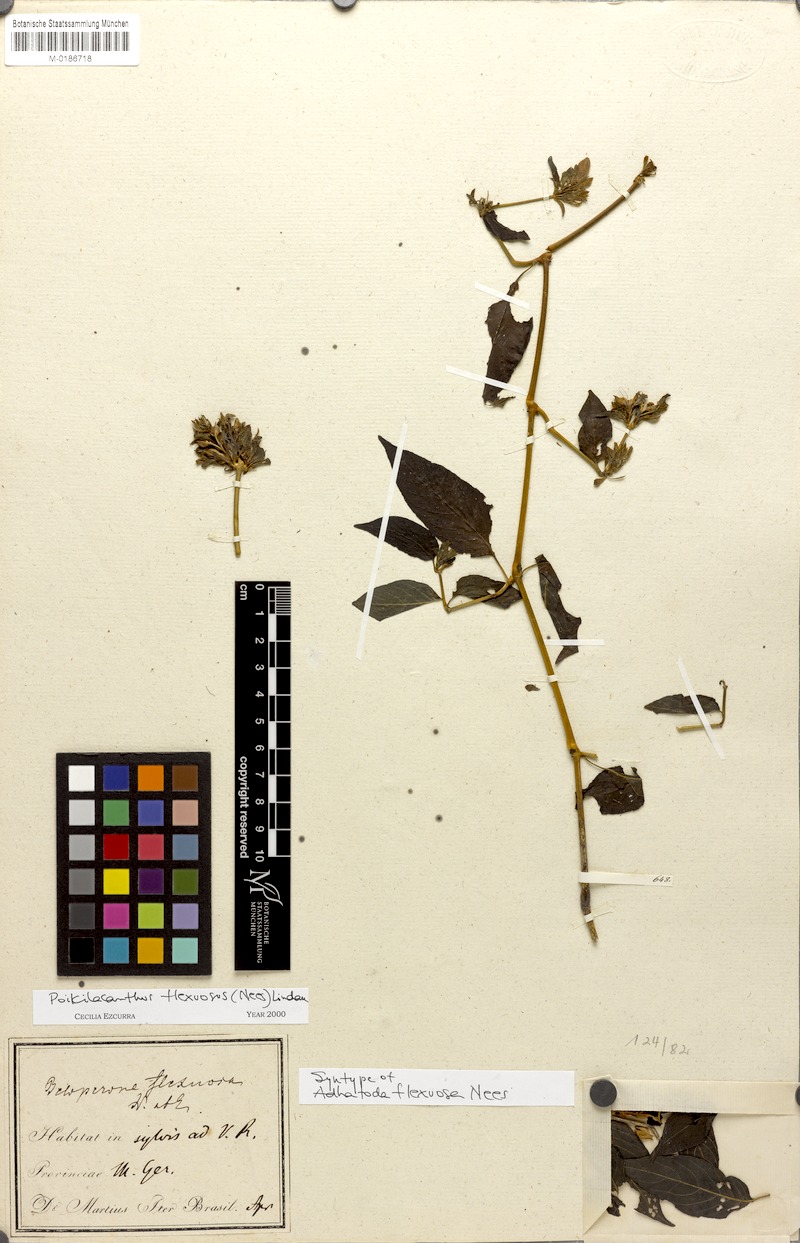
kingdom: Plantae
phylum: Tracheophyta
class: Magnoliopsida
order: Lamiales
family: Acanthaceae
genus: Poikilacanthus
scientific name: Poikilacanthus glandulosus
